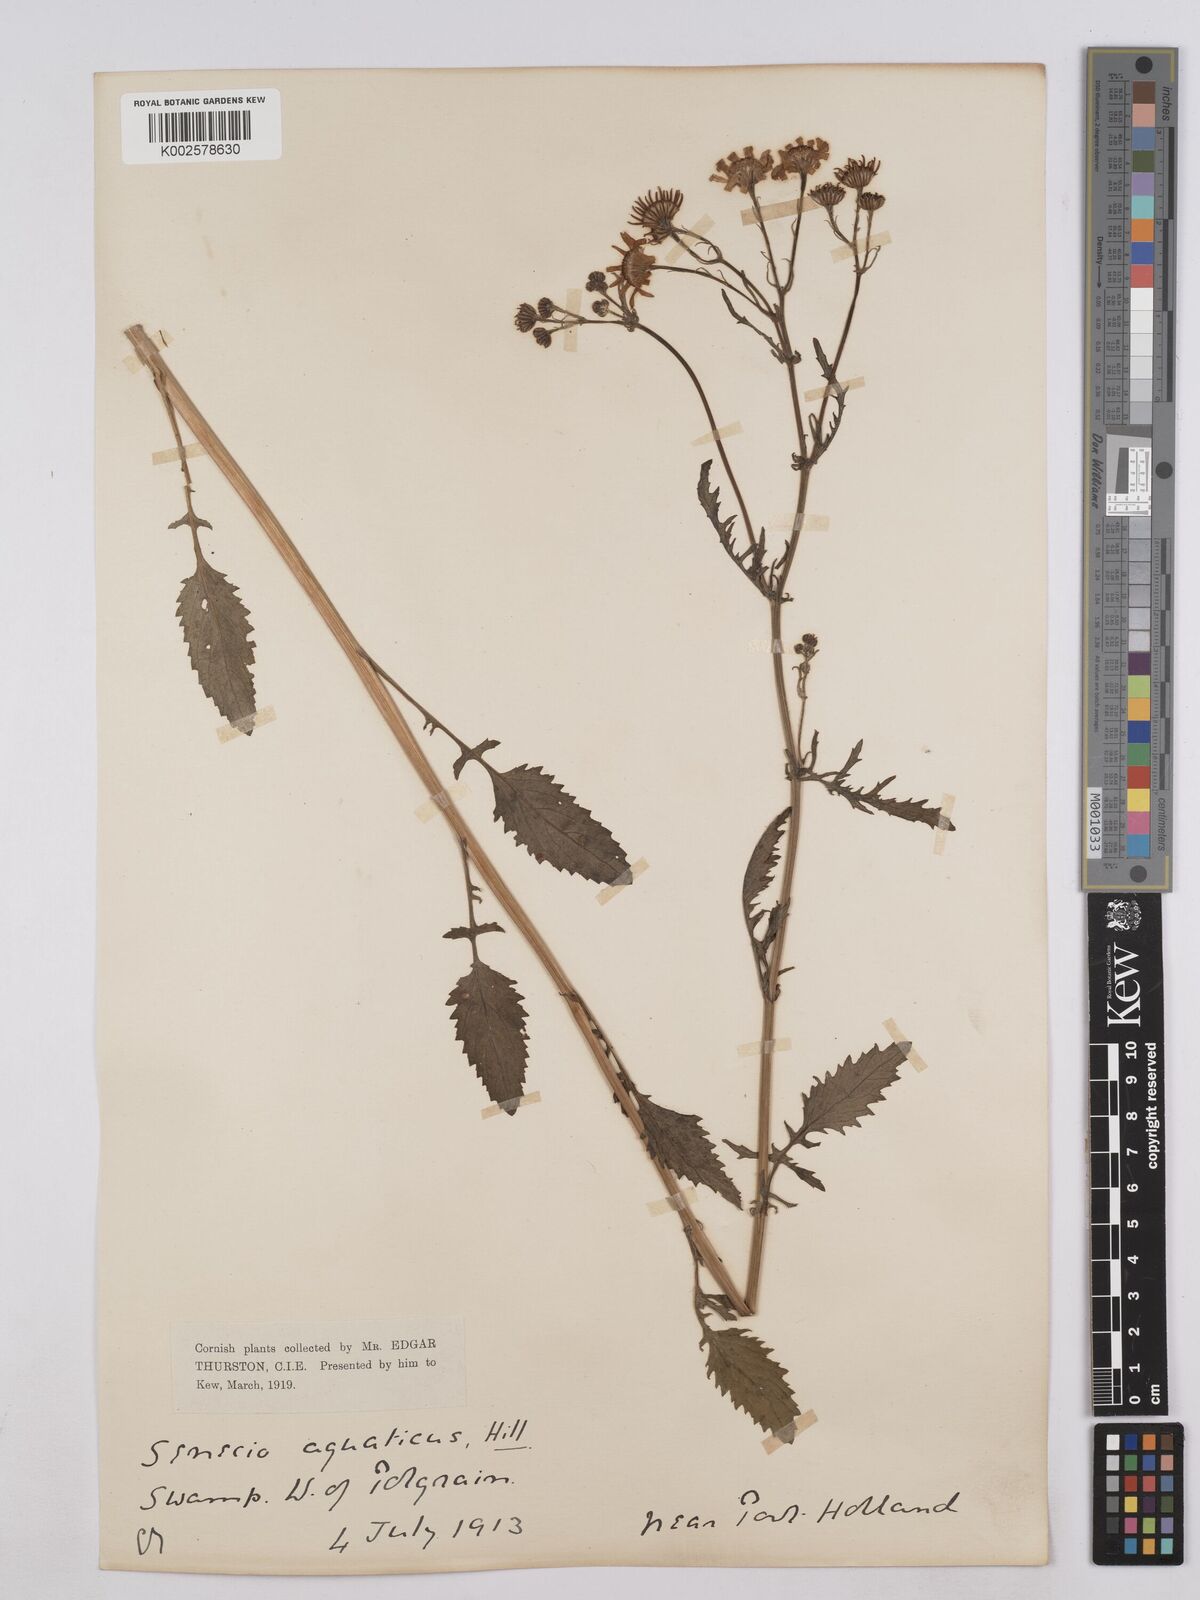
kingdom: Plantae
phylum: Tracheophyta
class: Magnoliopsida
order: Asterales
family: Asteraceae
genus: Jacobaea
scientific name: Jacobaea aquatica
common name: Water ragwort
